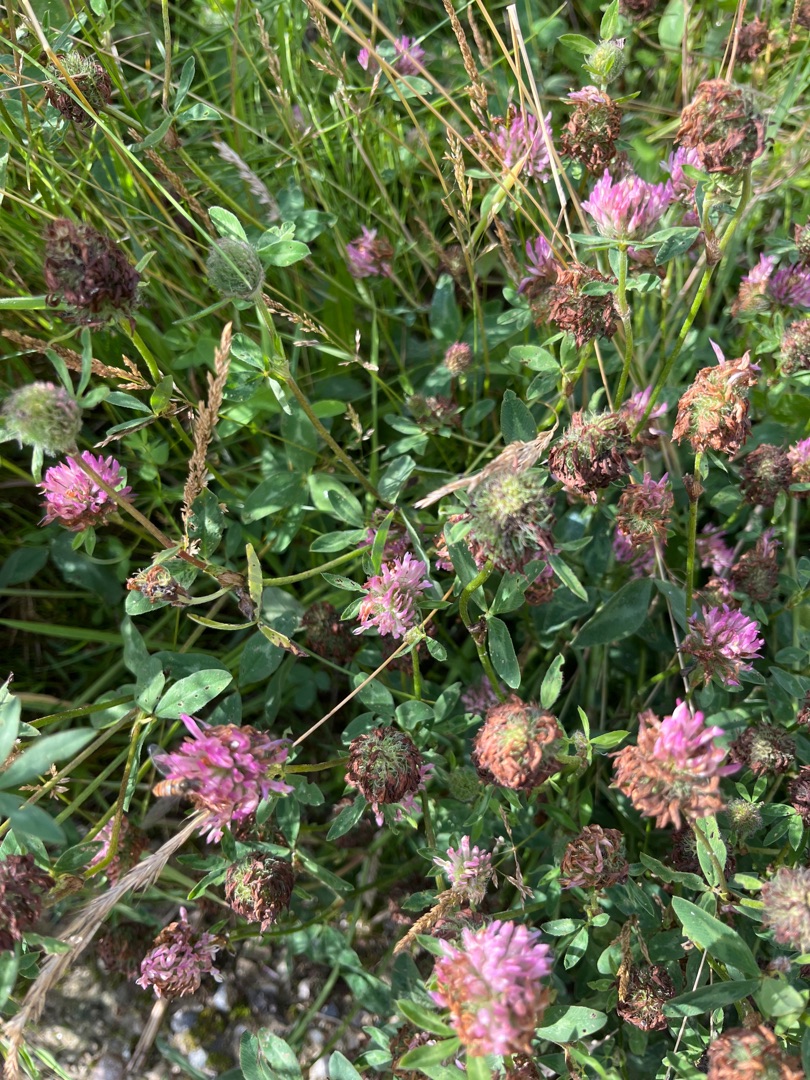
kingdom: Plantae
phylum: Tracheophyta
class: Magnoliopsida
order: Fabales
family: Fabaceae
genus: Trifolium
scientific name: Trifolium pratense
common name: Rød-kløver
